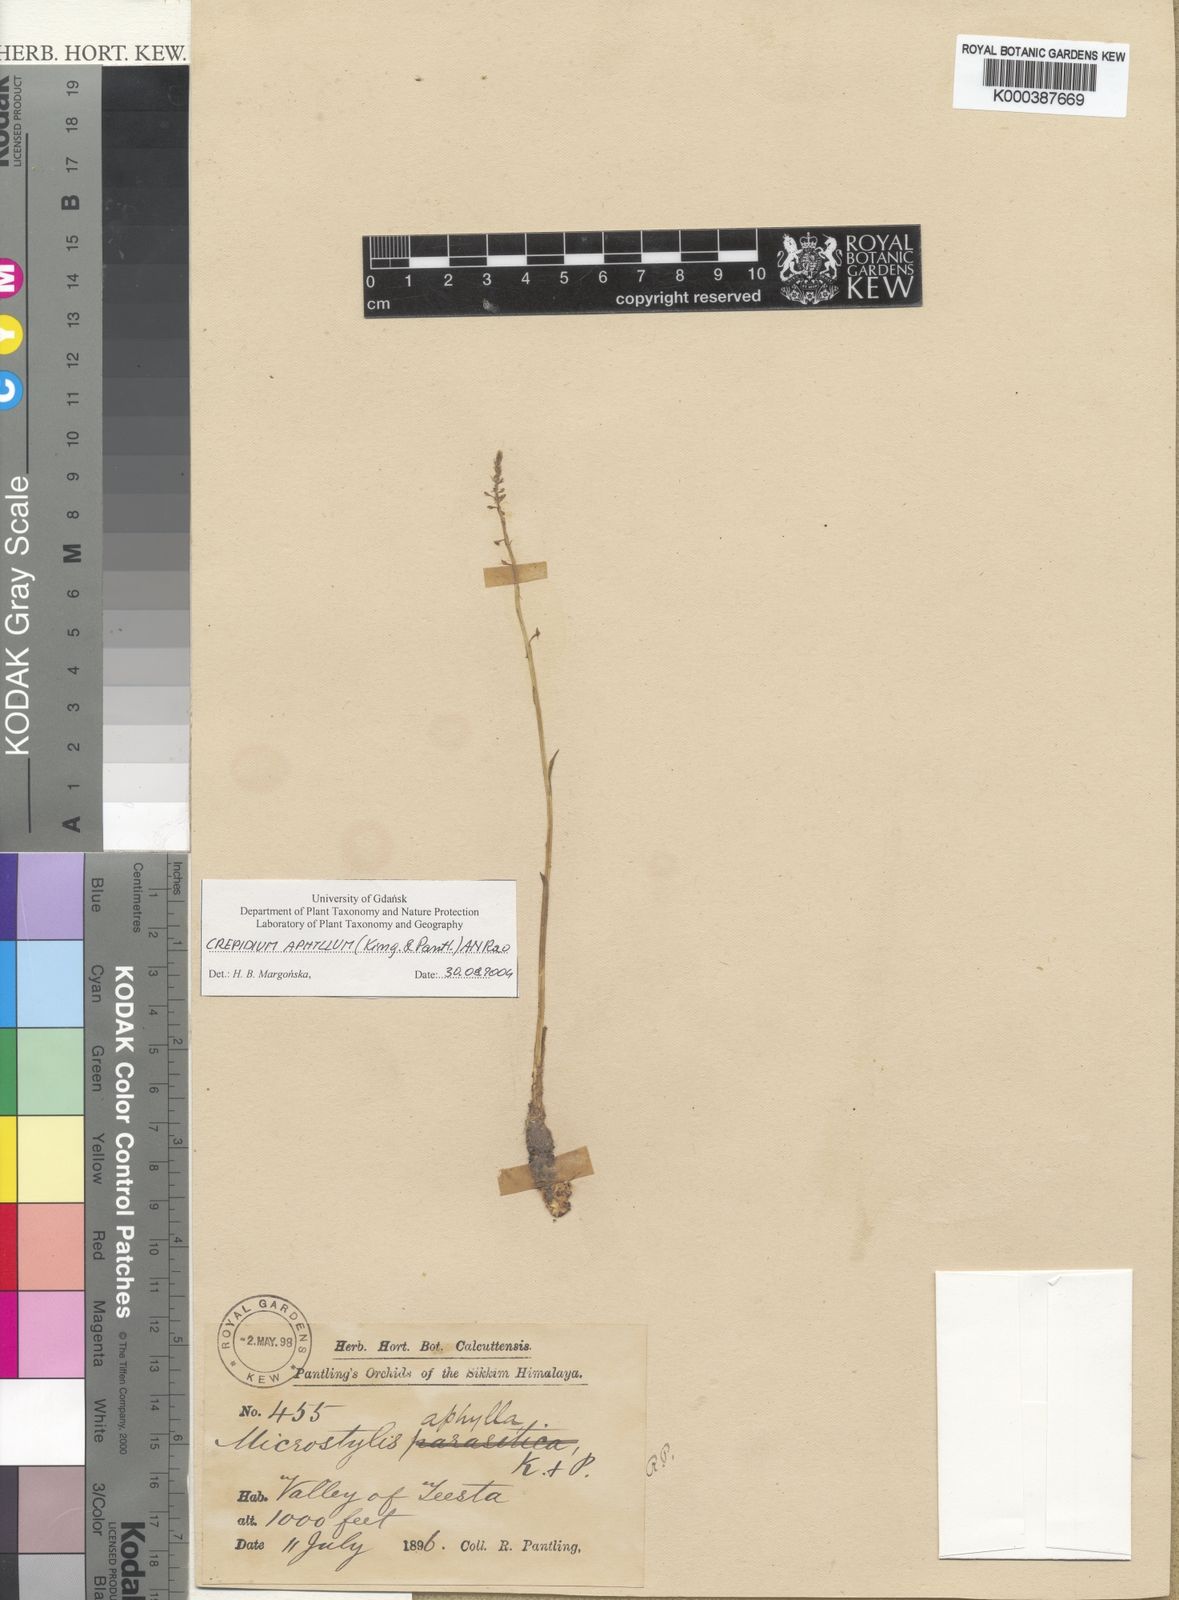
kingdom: Plantae
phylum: Tracheophyta
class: Liliopsida
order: Asparagales
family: Orchidaceae
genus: Crepidium
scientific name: Crepidium aphyllum
